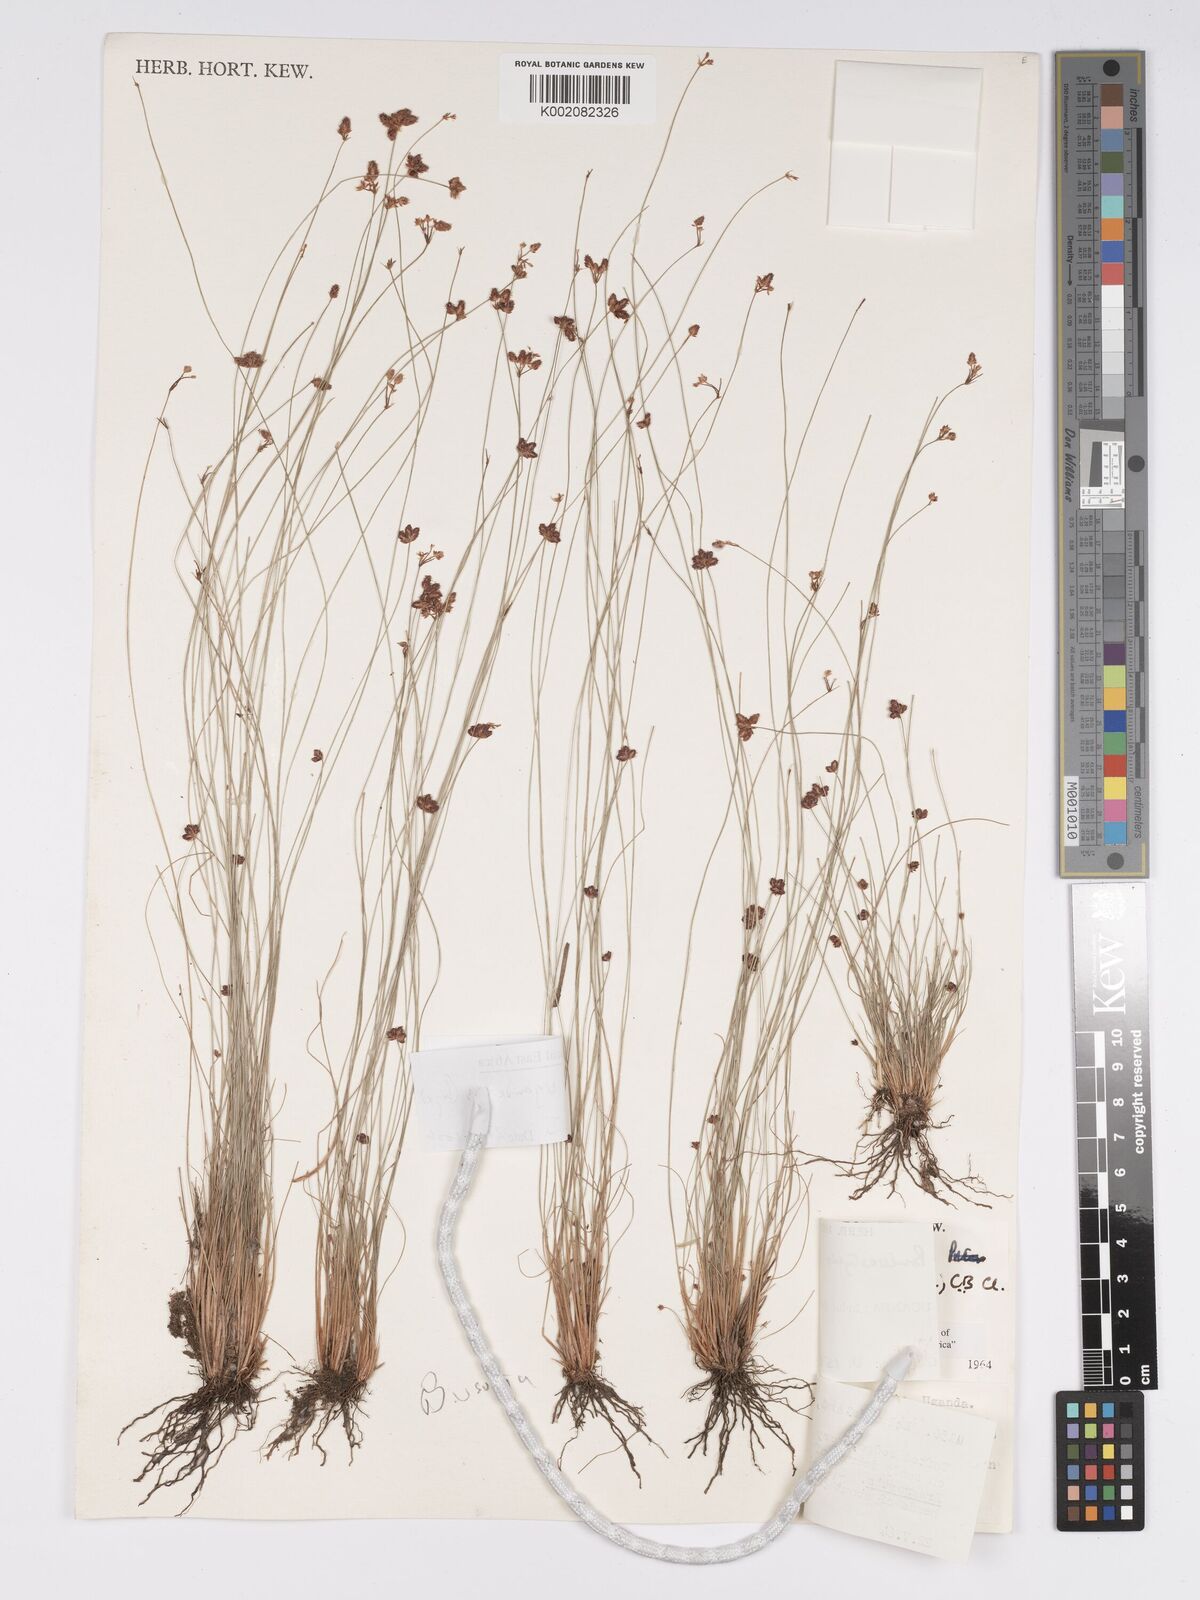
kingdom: Plantae
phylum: Tracheophyta
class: Liliopsida
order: Poales
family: Cyperaceae
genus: Bulbostylis
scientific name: Bulbostylis ugandensis
